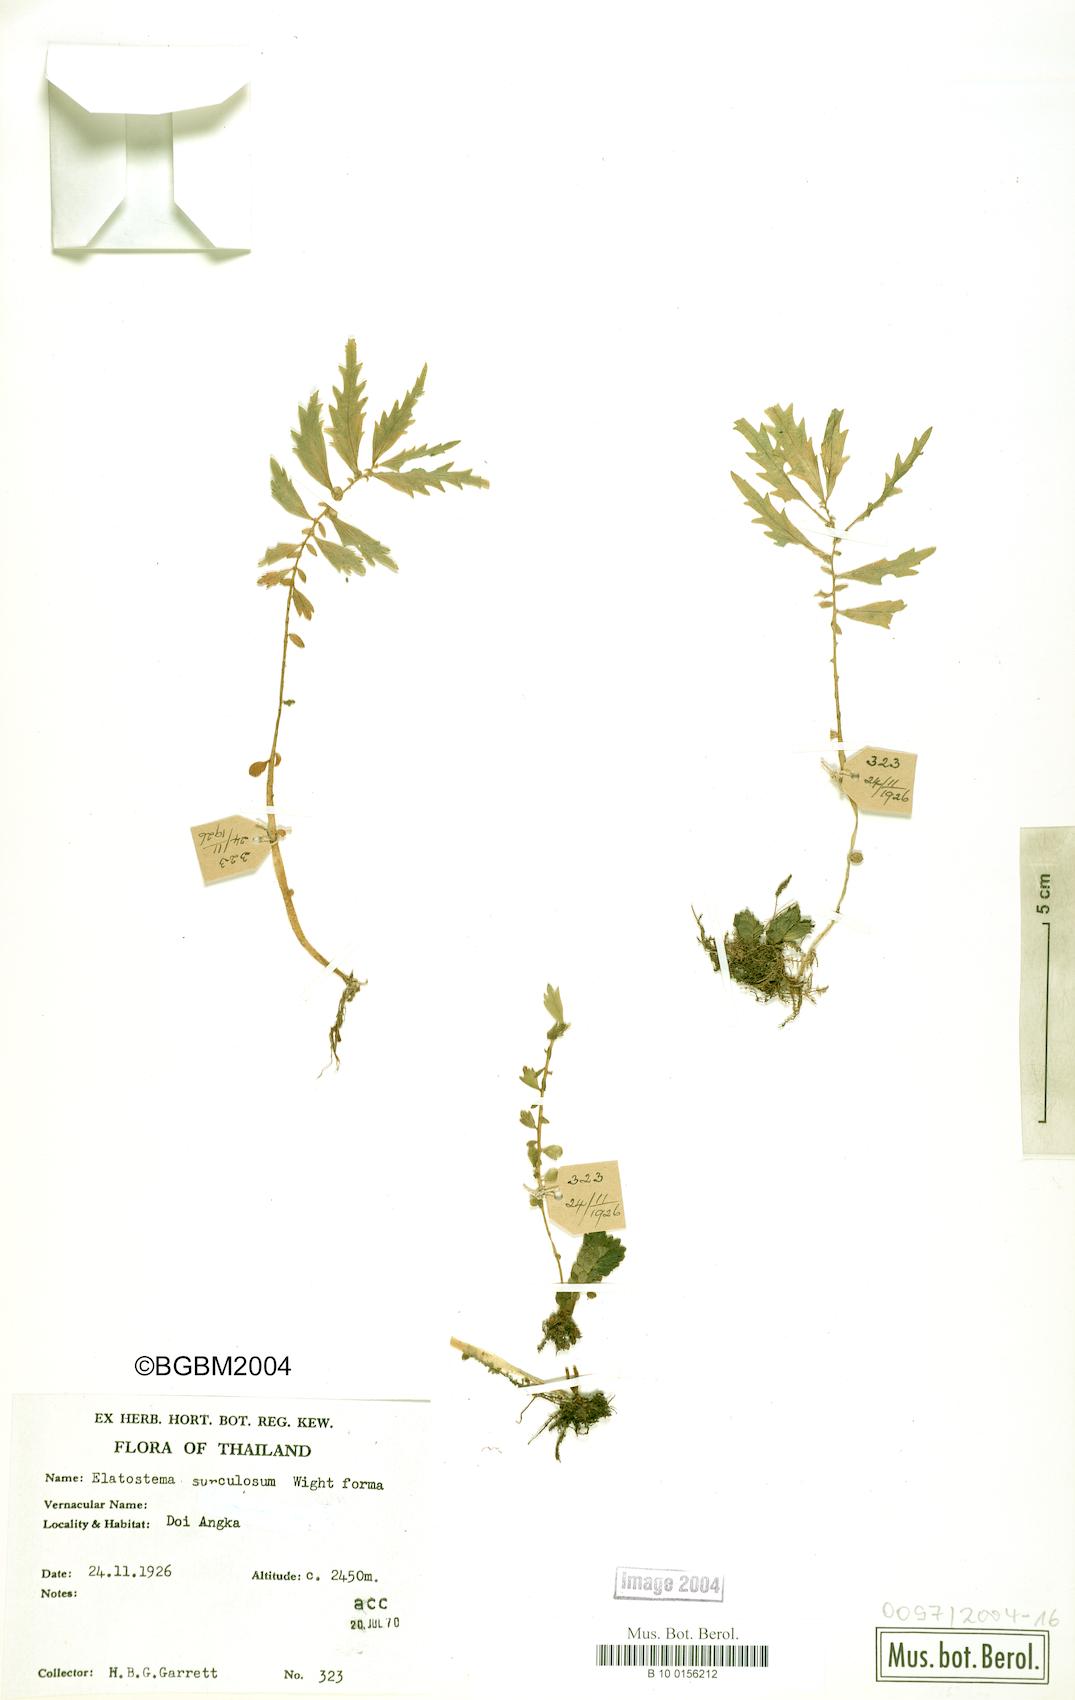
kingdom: Plantae
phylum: Tracheophyta
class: Magnoliopsida
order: Rosales
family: Urticaceae
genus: Elatostema
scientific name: Elatostema monandrum
